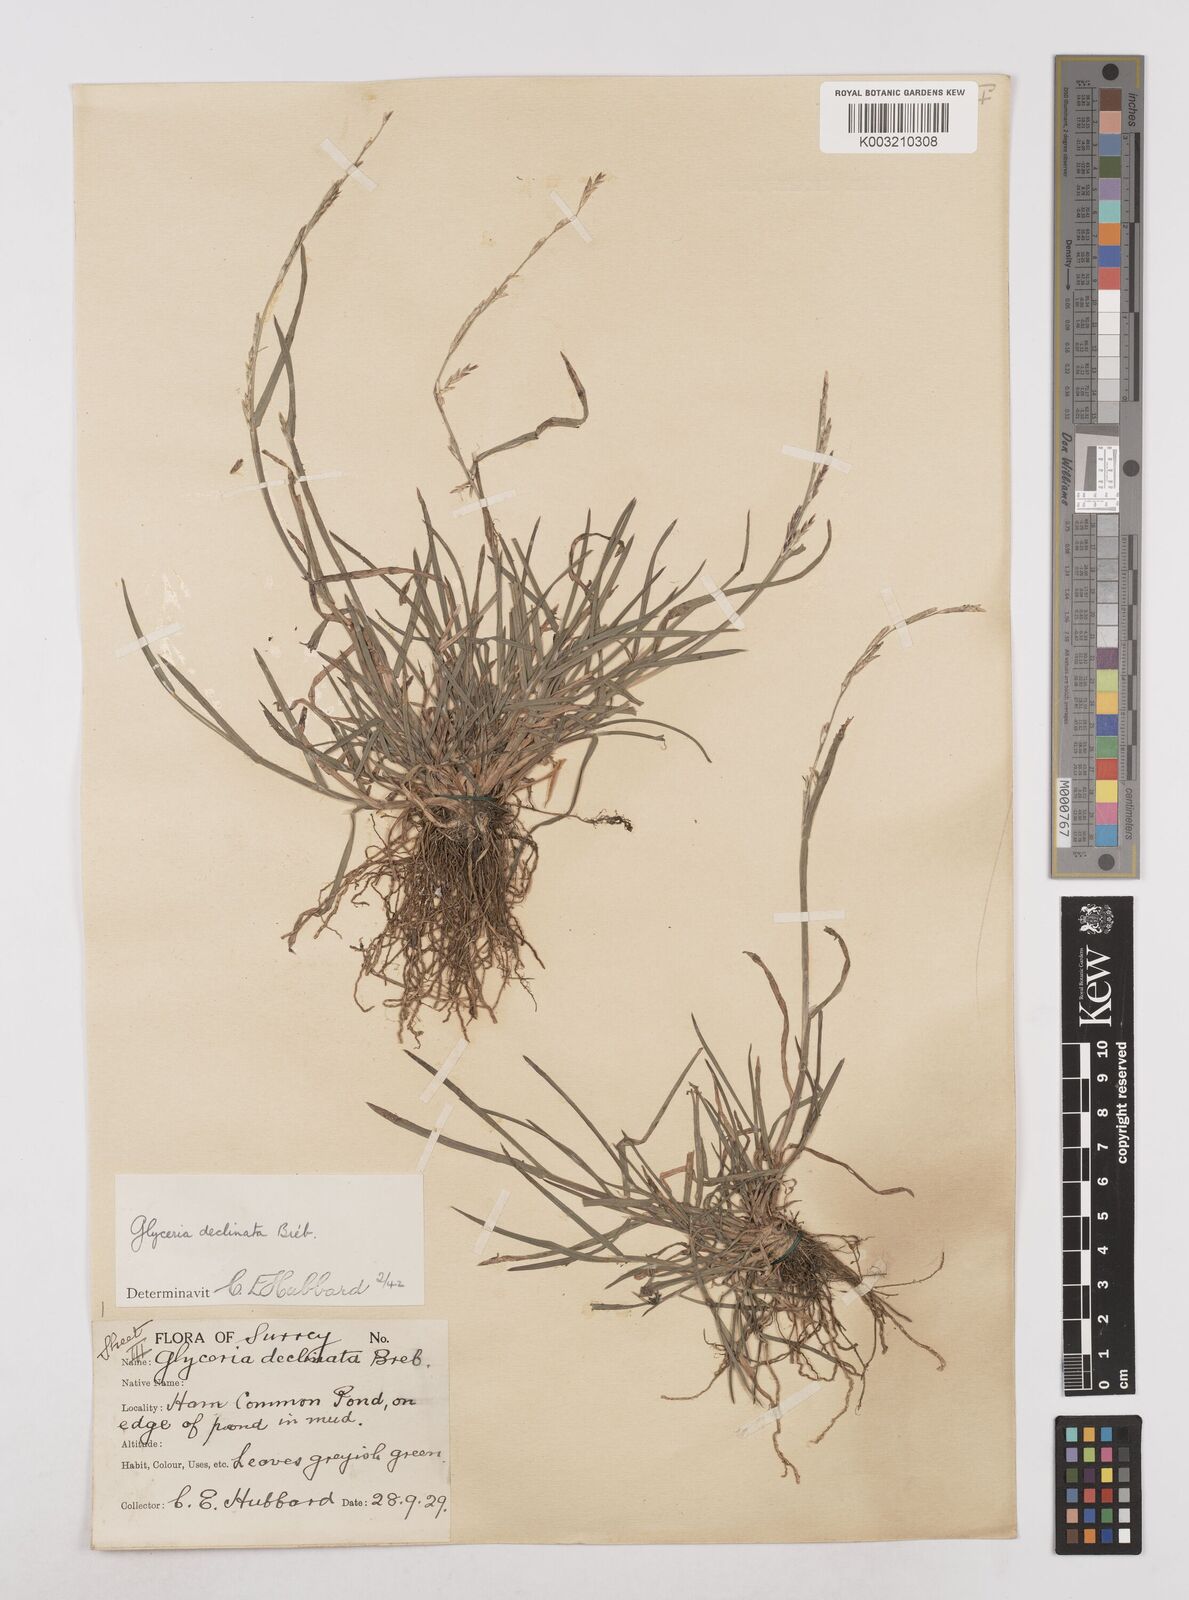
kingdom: Plantae
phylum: Tracheophyta
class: Liliopsida
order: Poales
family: Poaceae
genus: Glyceria
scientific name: Glyceria declinata
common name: Small sweet-grass
